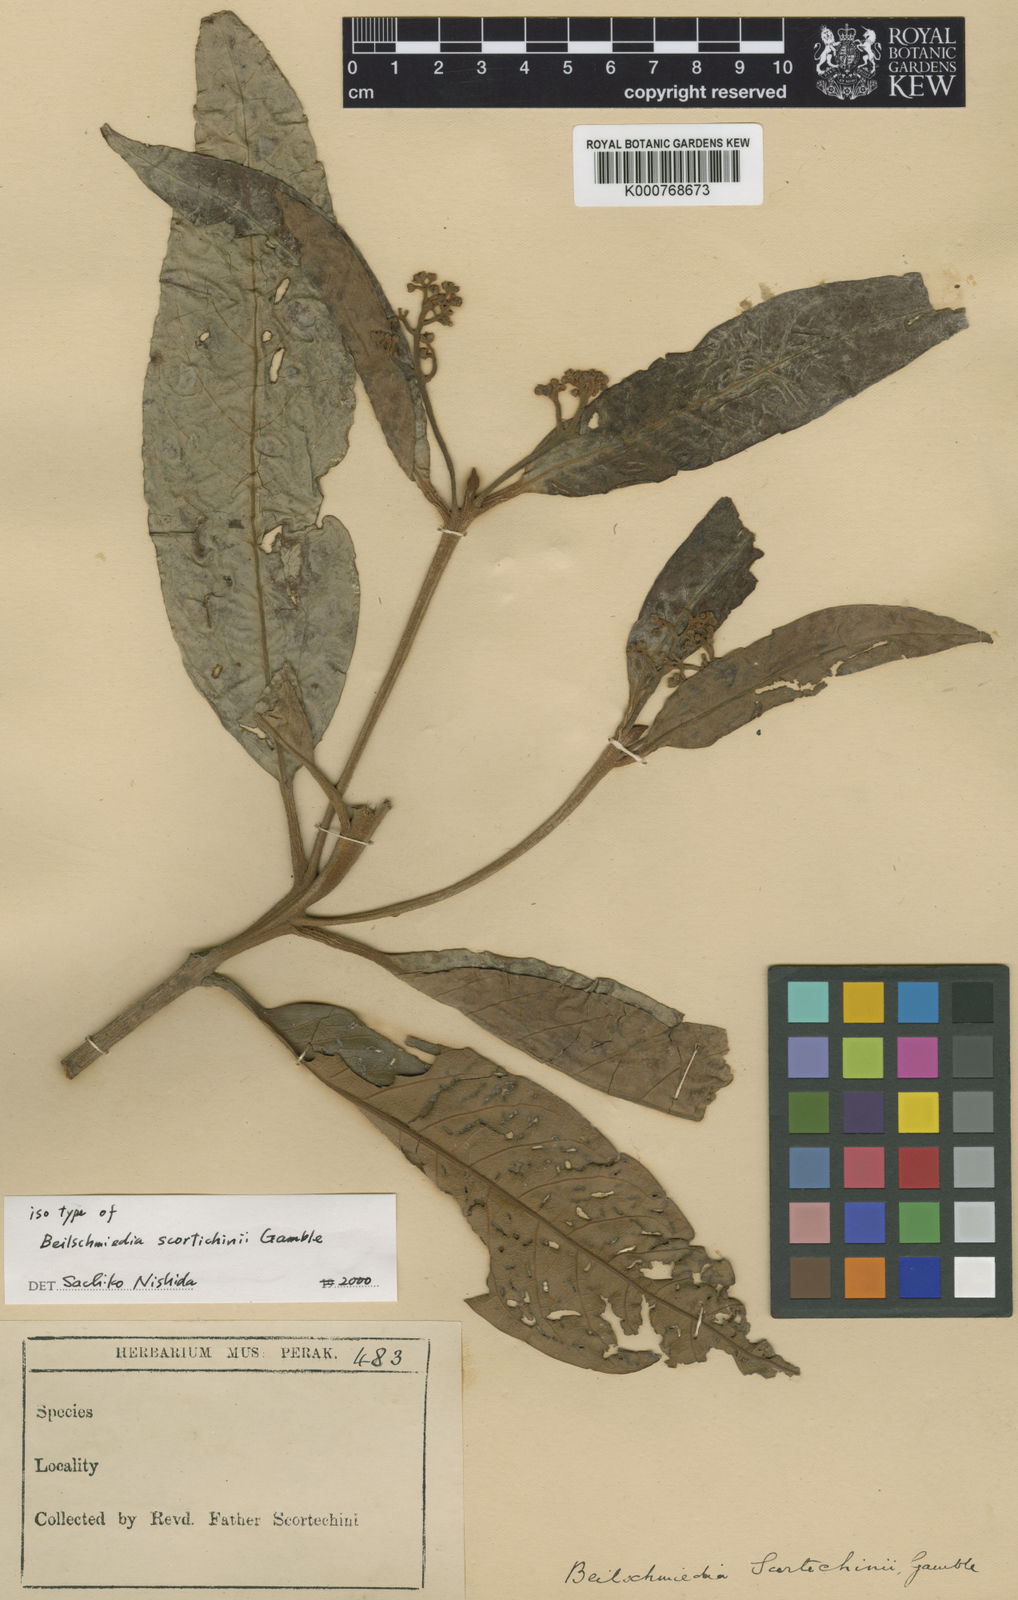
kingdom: Plantae
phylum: Tracheophyta
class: Magnoliopsida
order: Laurales
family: Lauraceae
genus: Beilschmiedia
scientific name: Beilschmiedia scortechinii
